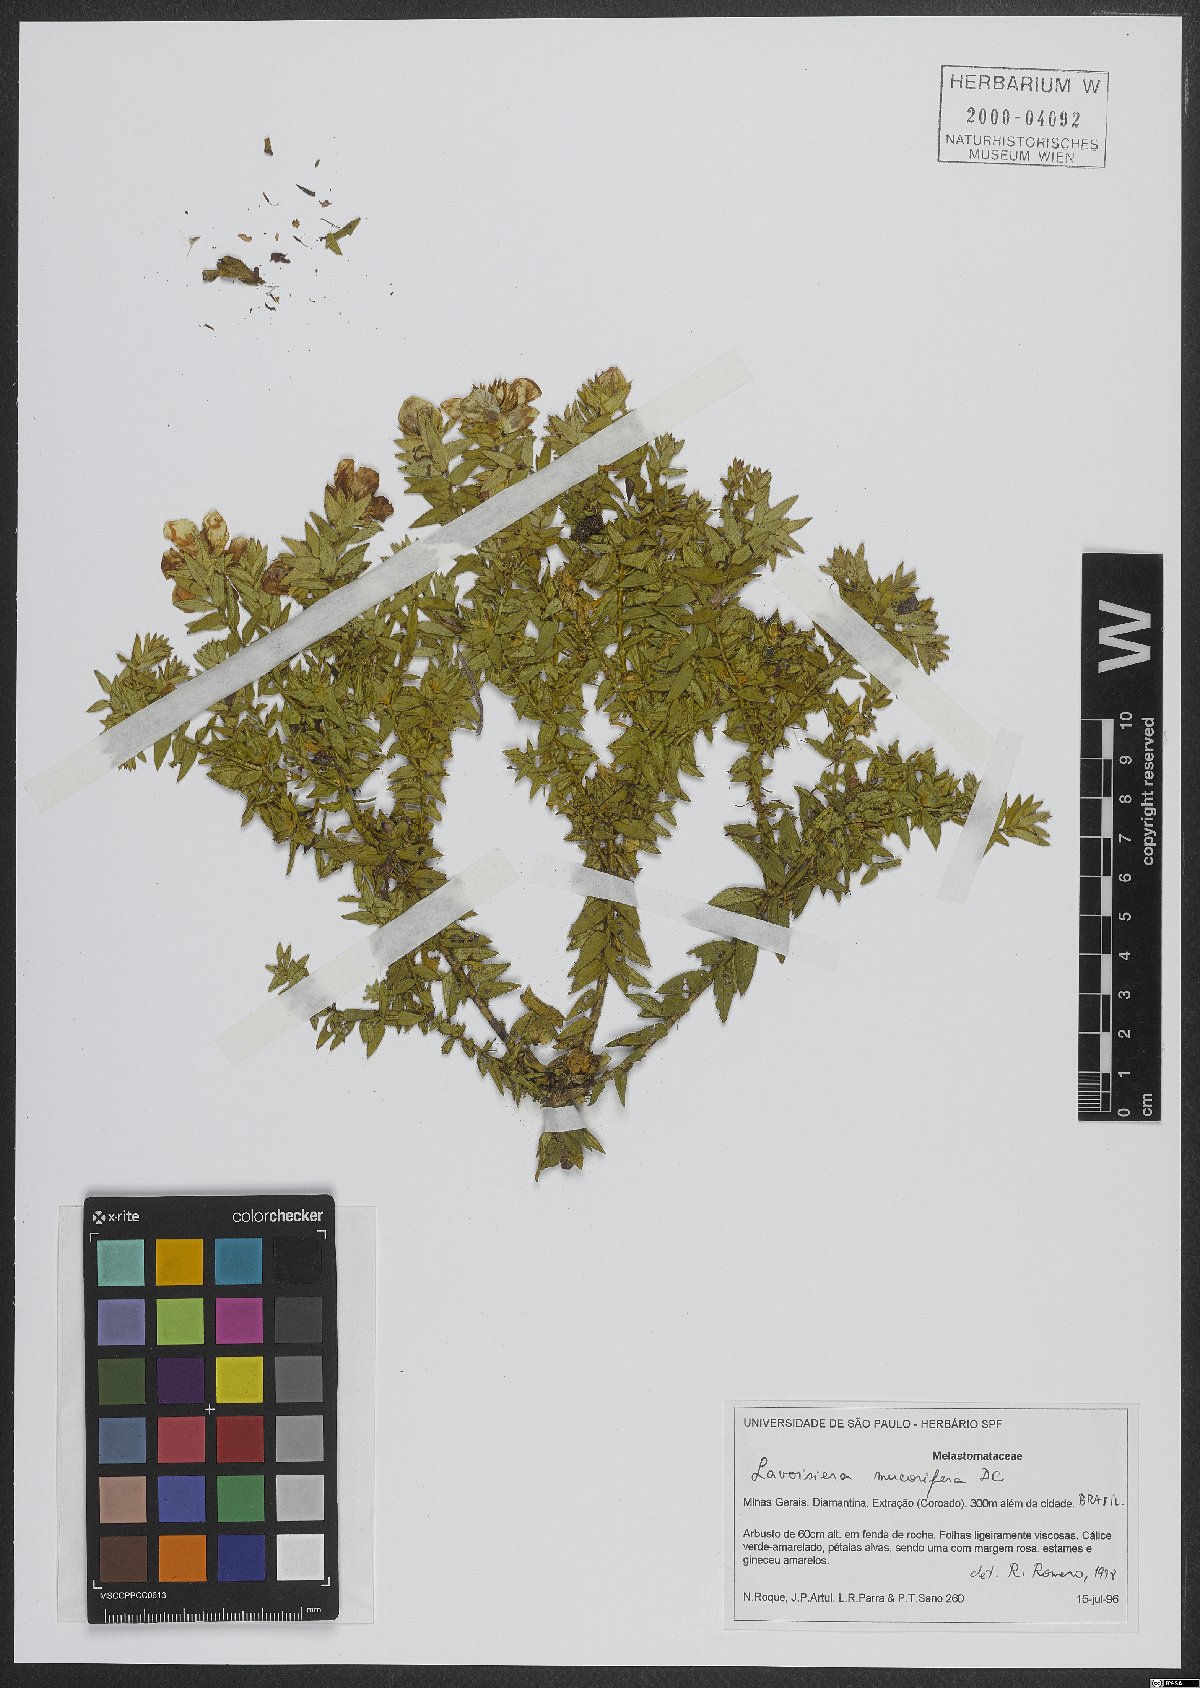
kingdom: Plantae
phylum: Tracheophyta
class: Magnoliopsida
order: Myrtales
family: Melastomataceae
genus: Microlicia
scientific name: Microlicia mucorifera
